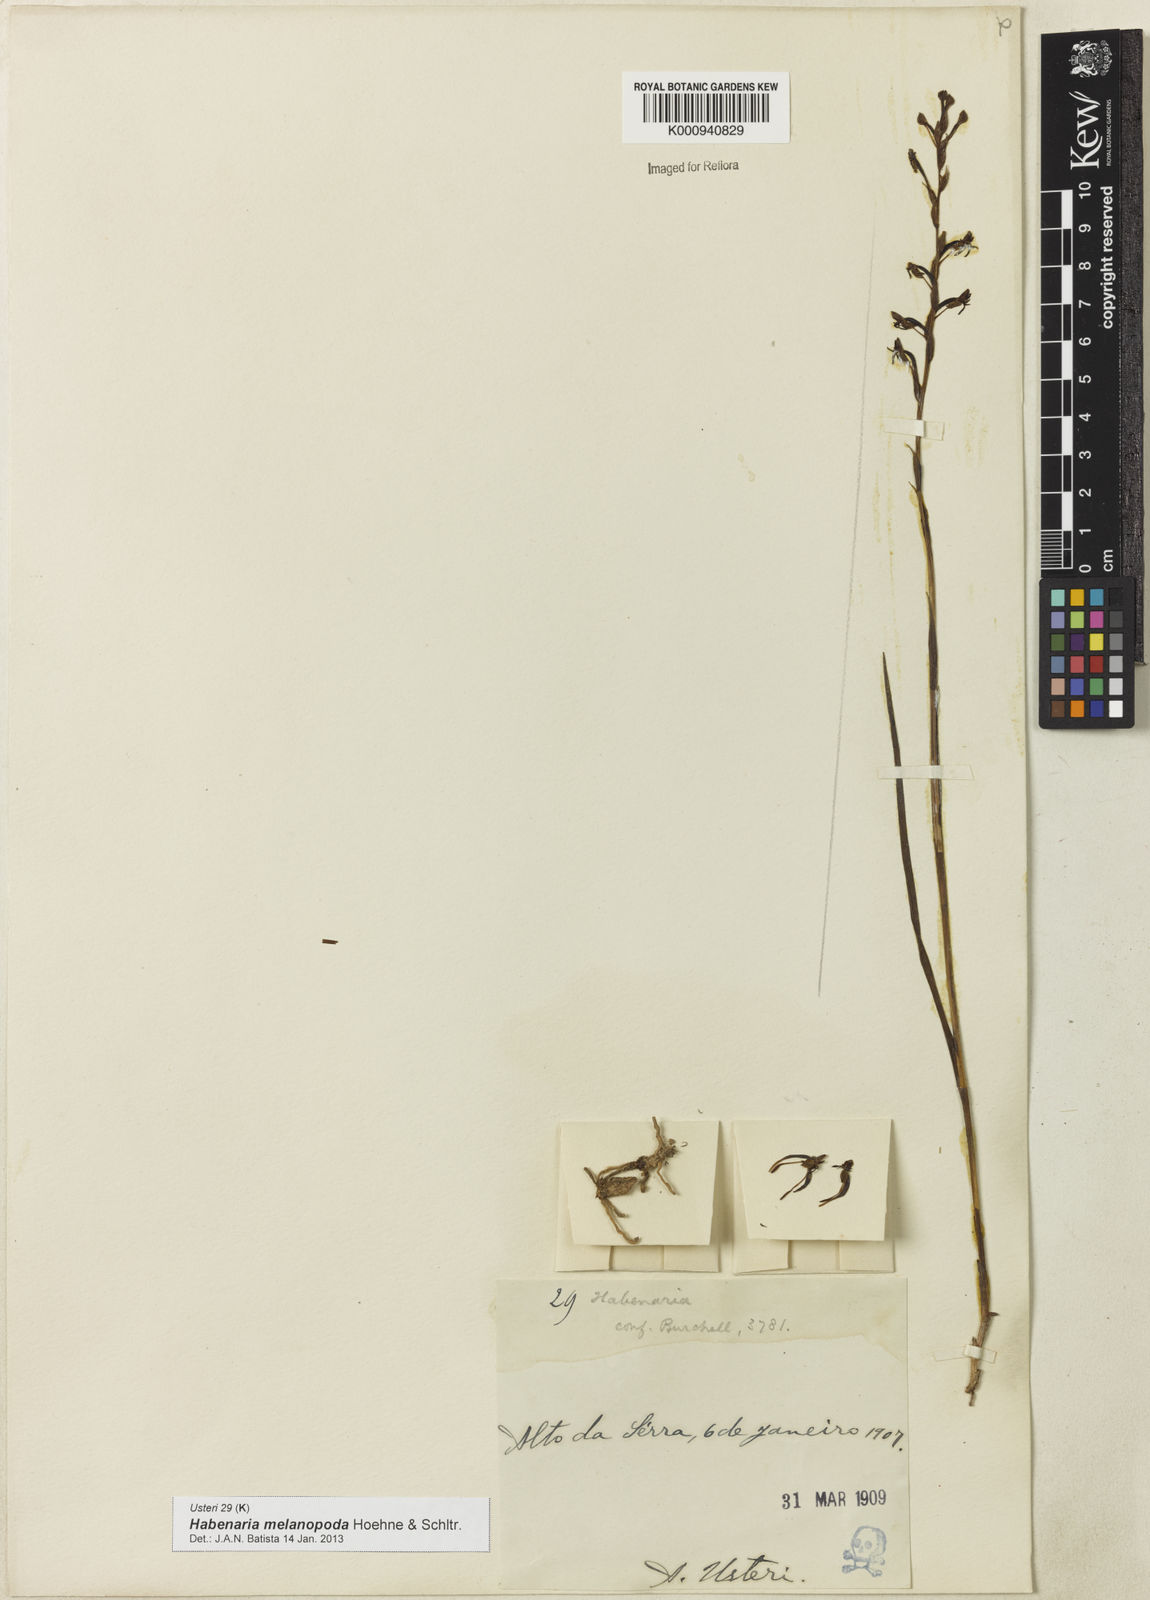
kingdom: Plantae
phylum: Tracheophyta
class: Liliopsida
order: Asparagales
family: Orchidaceae
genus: Habenaria
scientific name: Habenaria alpestris
